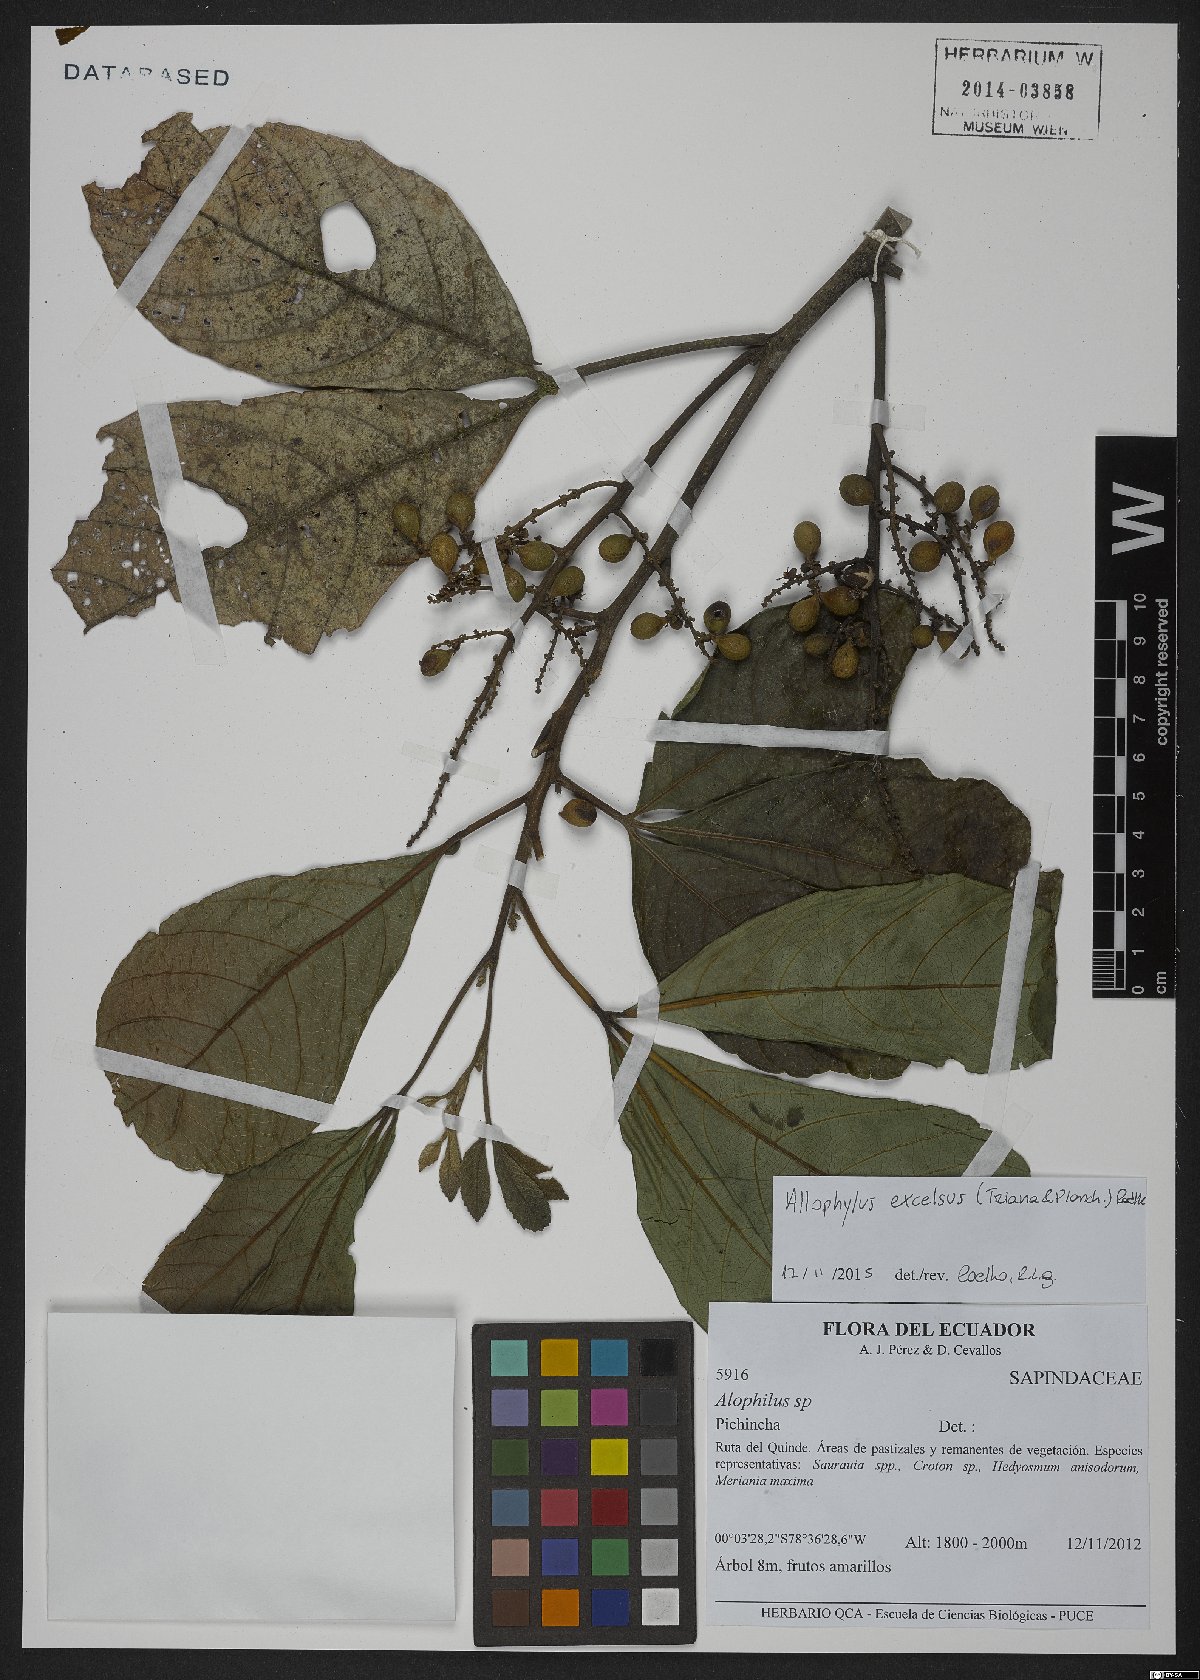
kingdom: Plantae
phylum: Tracheophyta
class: Magnoliopsida
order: Sapindales
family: Sapindaceae
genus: Allophylus
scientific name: Allophylus excelsus
